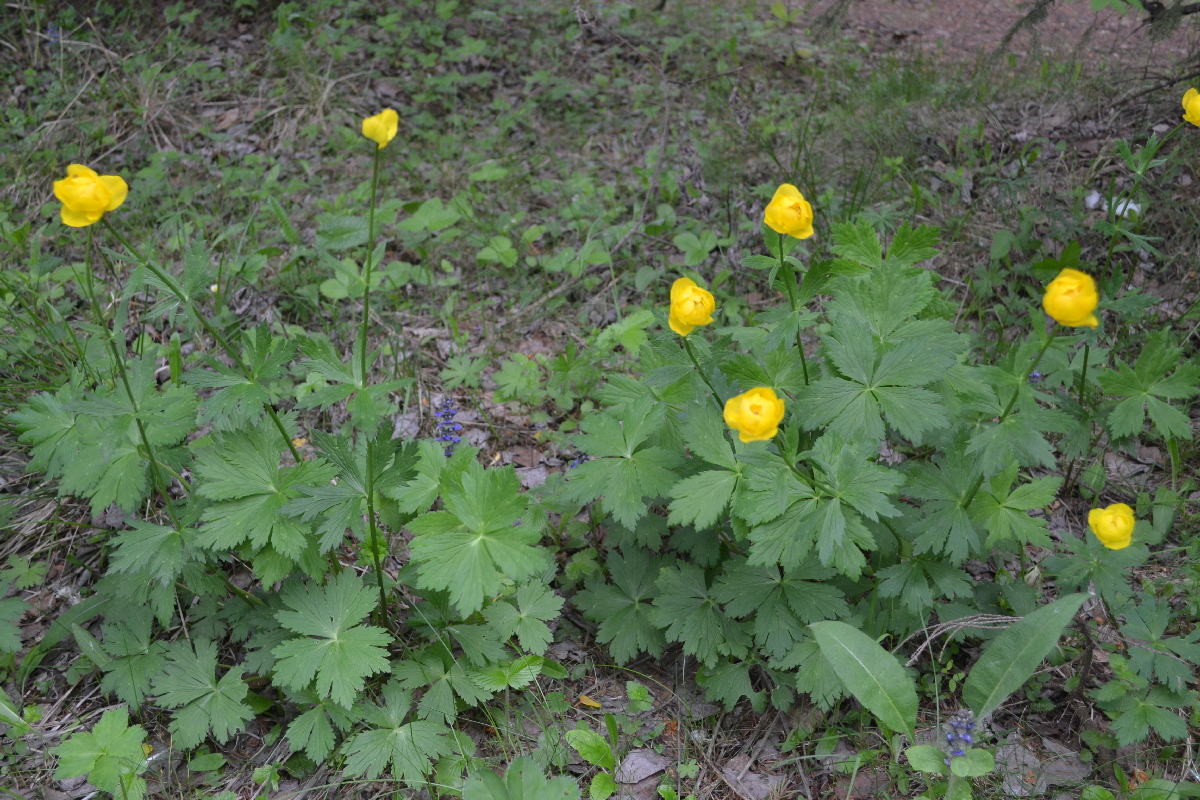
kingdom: Plantae
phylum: Tracheophyta
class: Magnoliopsida
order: Ranunculales
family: Ranunculaceae
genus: Trollius
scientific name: Trollius europaeus
